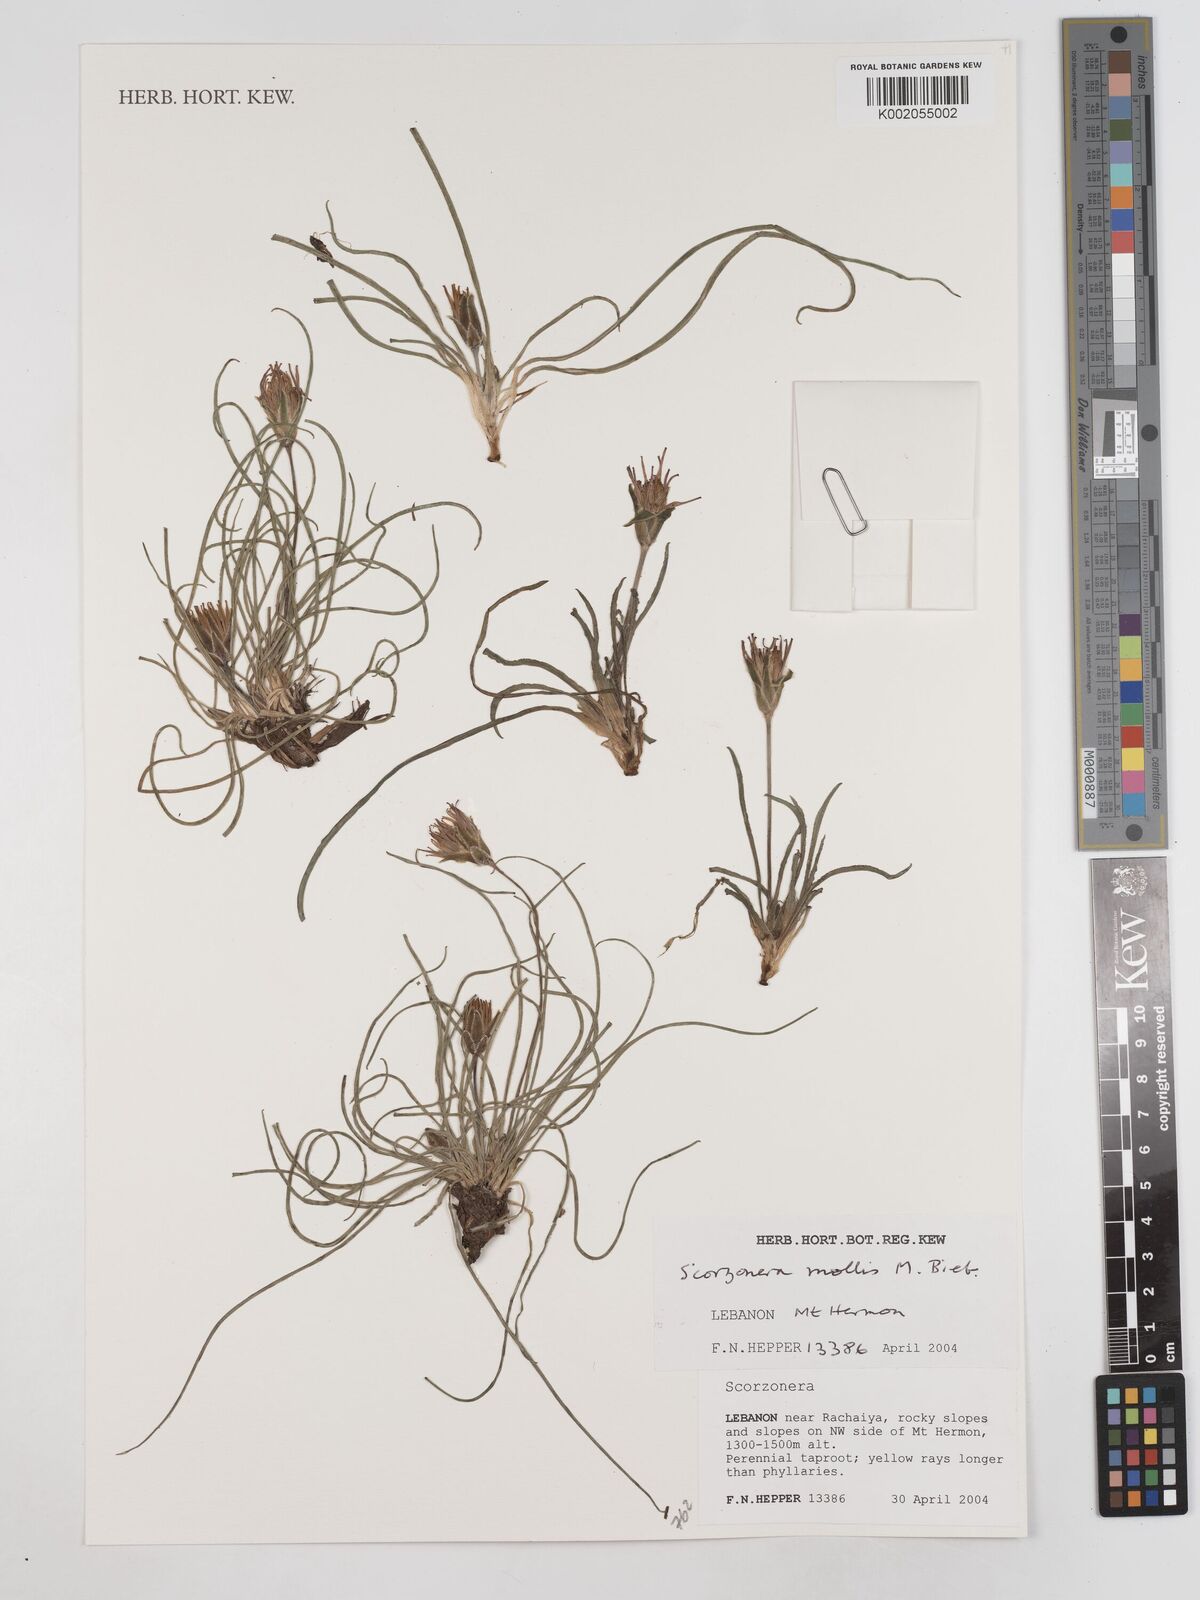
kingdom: Plantae
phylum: Tracheophyta
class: Magnoliopsida
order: Asterales
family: Asteraceae
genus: Candollea
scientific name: Candollea mollis
